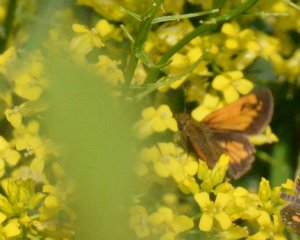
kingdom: Animalia
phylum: Arthropoda
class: Insecta
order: Lepidoptera
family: Hesperiidae
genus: Lon
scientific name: Lon hobomok
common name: Hobomok Skipper
